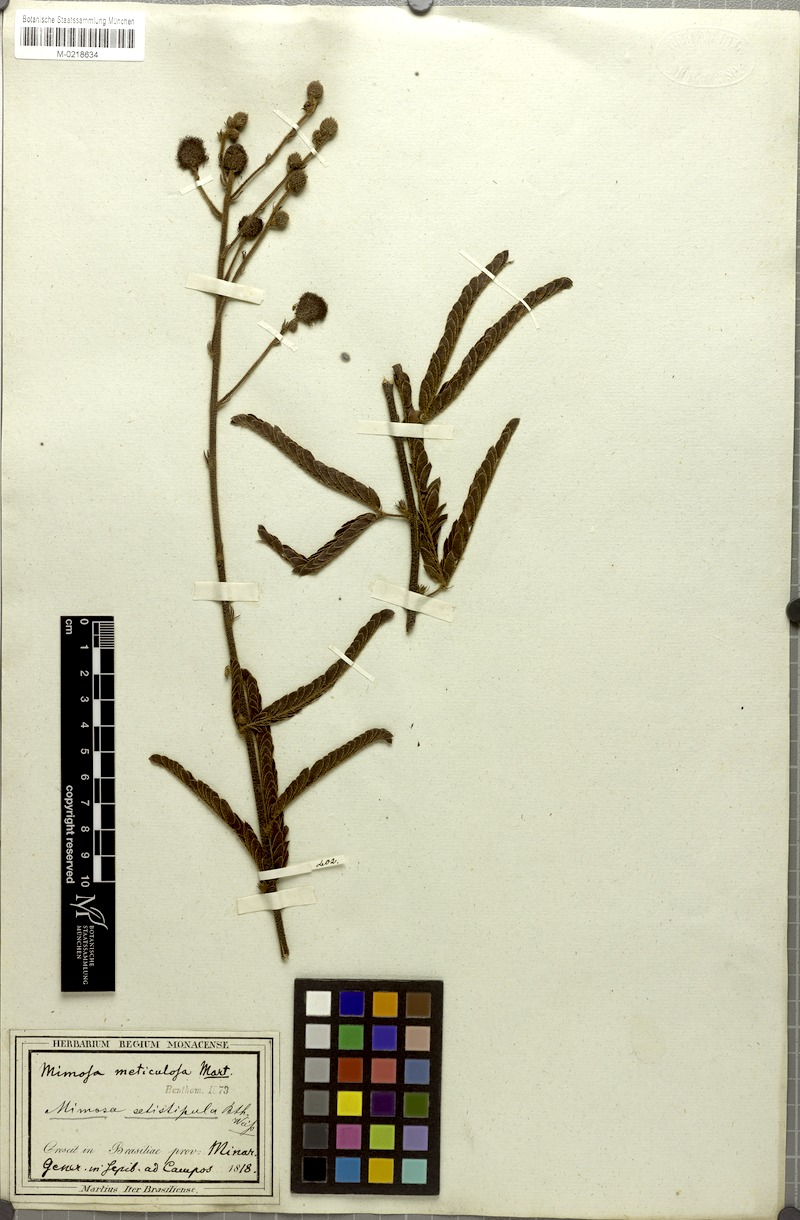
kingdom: Plantae
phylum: Tracheophyta
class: Magnoliopsida
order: Fabales
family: Fabaceae
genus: Mimosa
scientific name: Mimosa dolens
